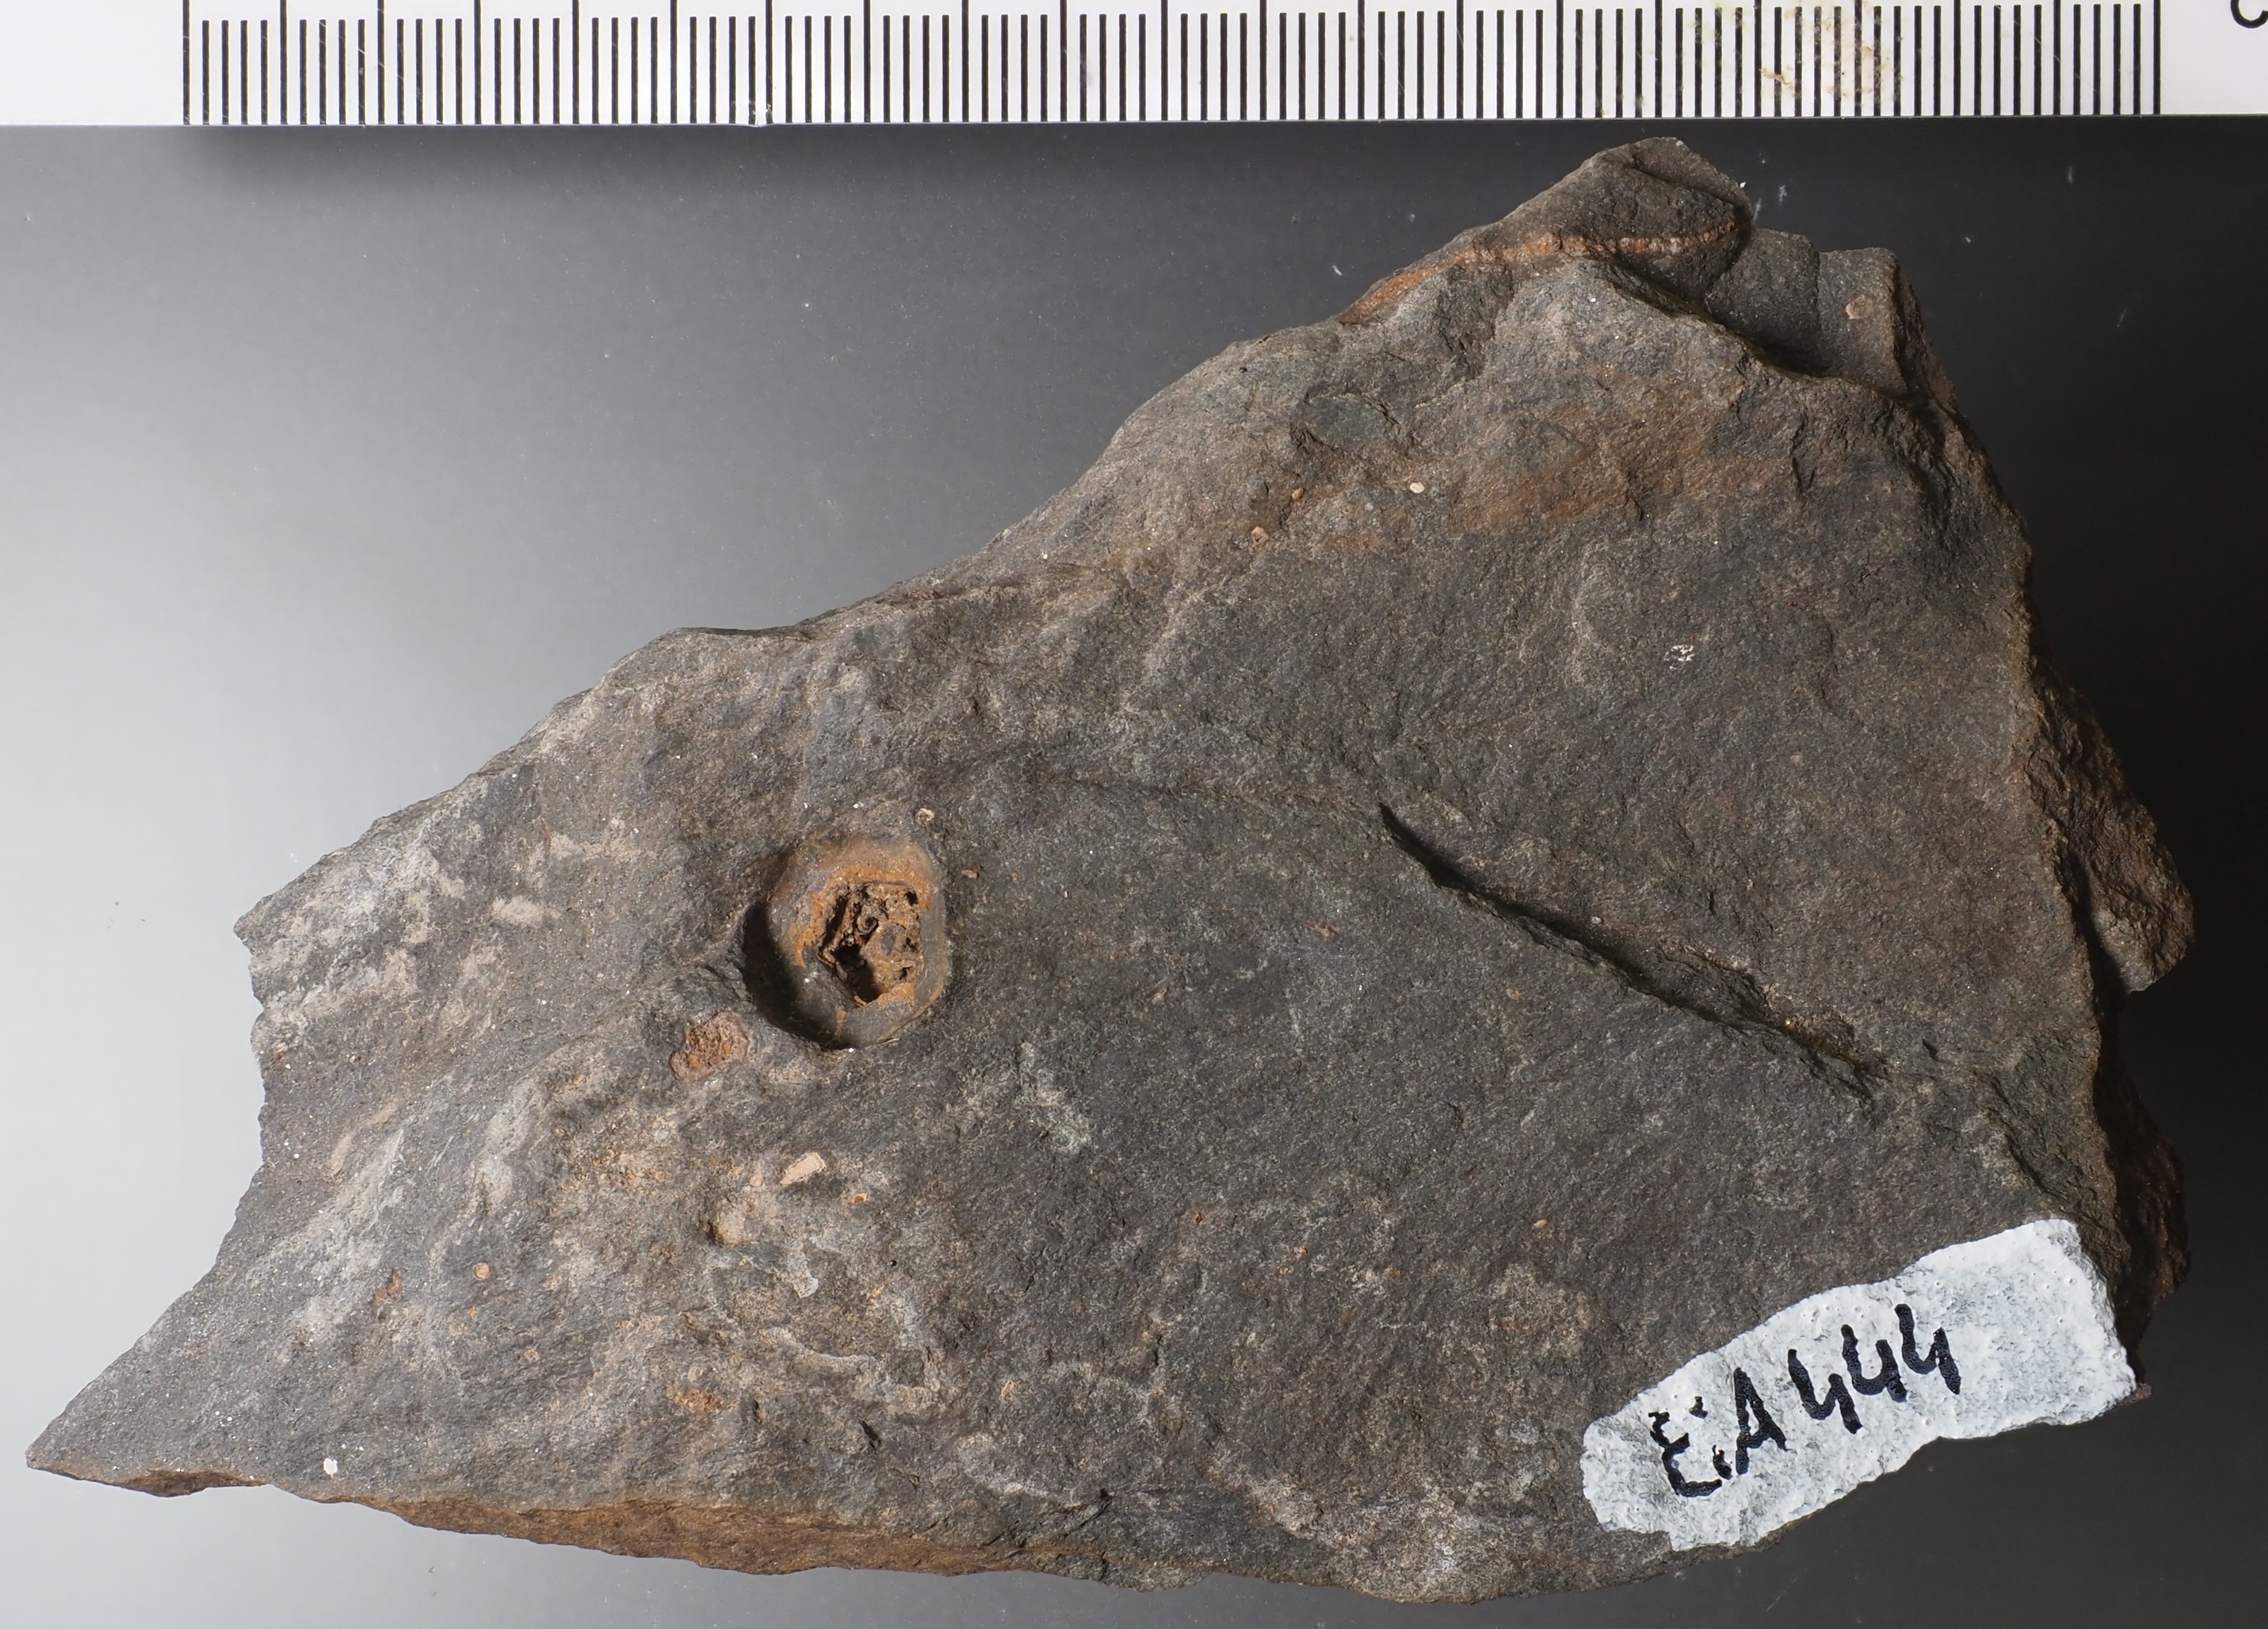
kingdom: Animalia
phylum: Echinodermata
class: Crinoidea
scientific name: Crinoidea
